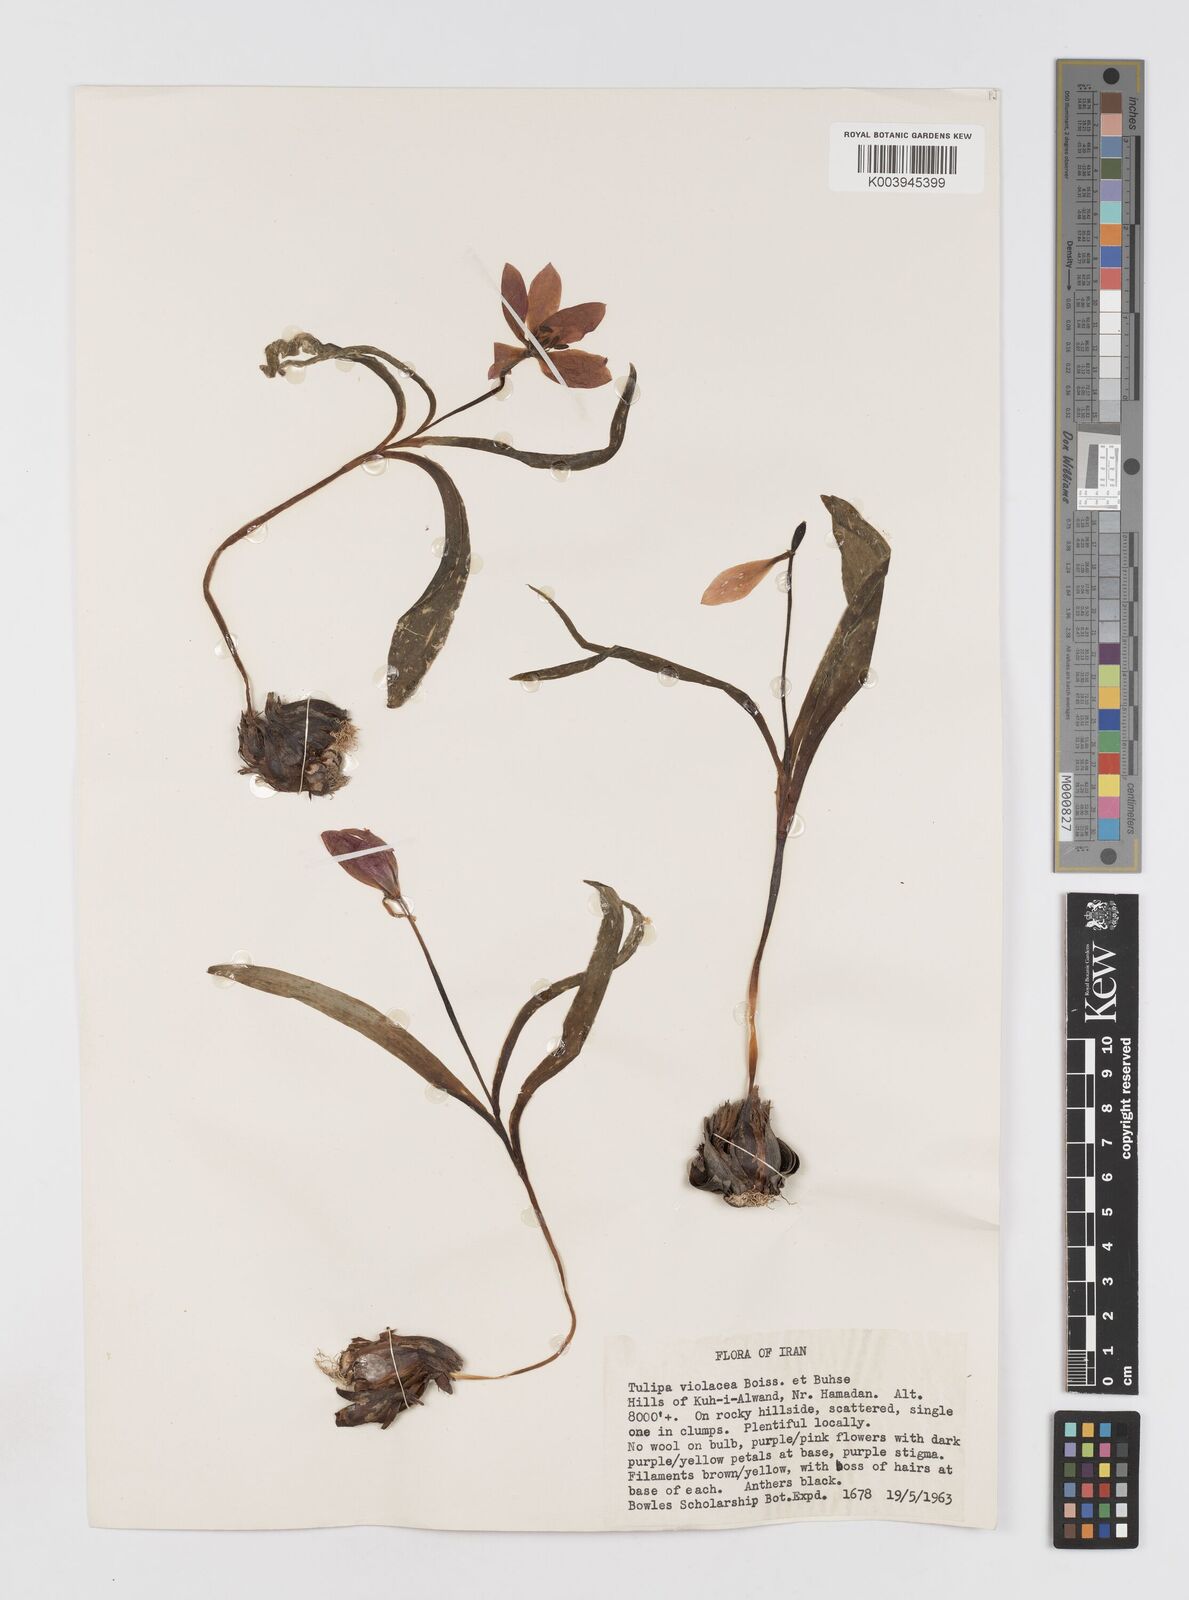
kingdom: Plantae
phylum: Tracheophyta
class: Liliopsida
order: Liliales
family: Liliaceae
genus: Tulipa
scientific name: Tulipa humilis
